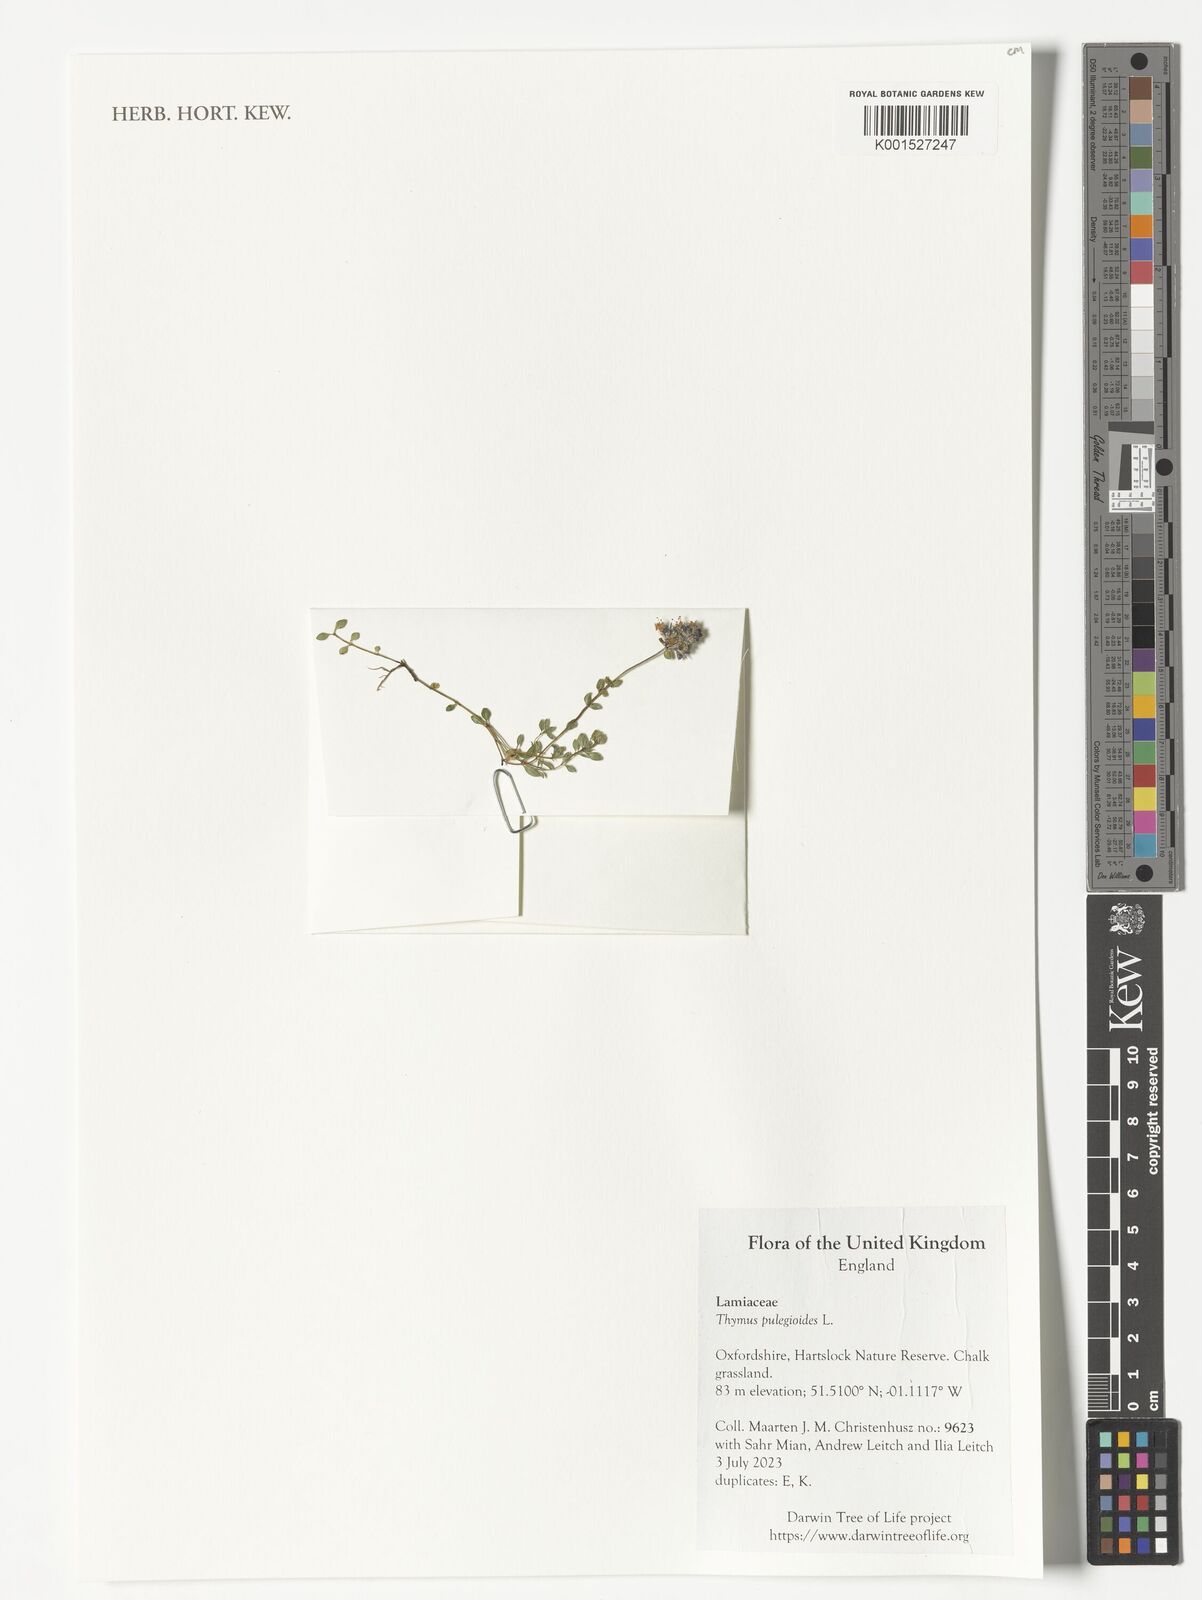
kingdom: Plantae
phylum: Tracheophyta
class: Magnoliopsida
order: Lamiales
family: Lamiaceae
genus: Thymus
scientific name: Thymus pulegioides
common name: Large thyme
